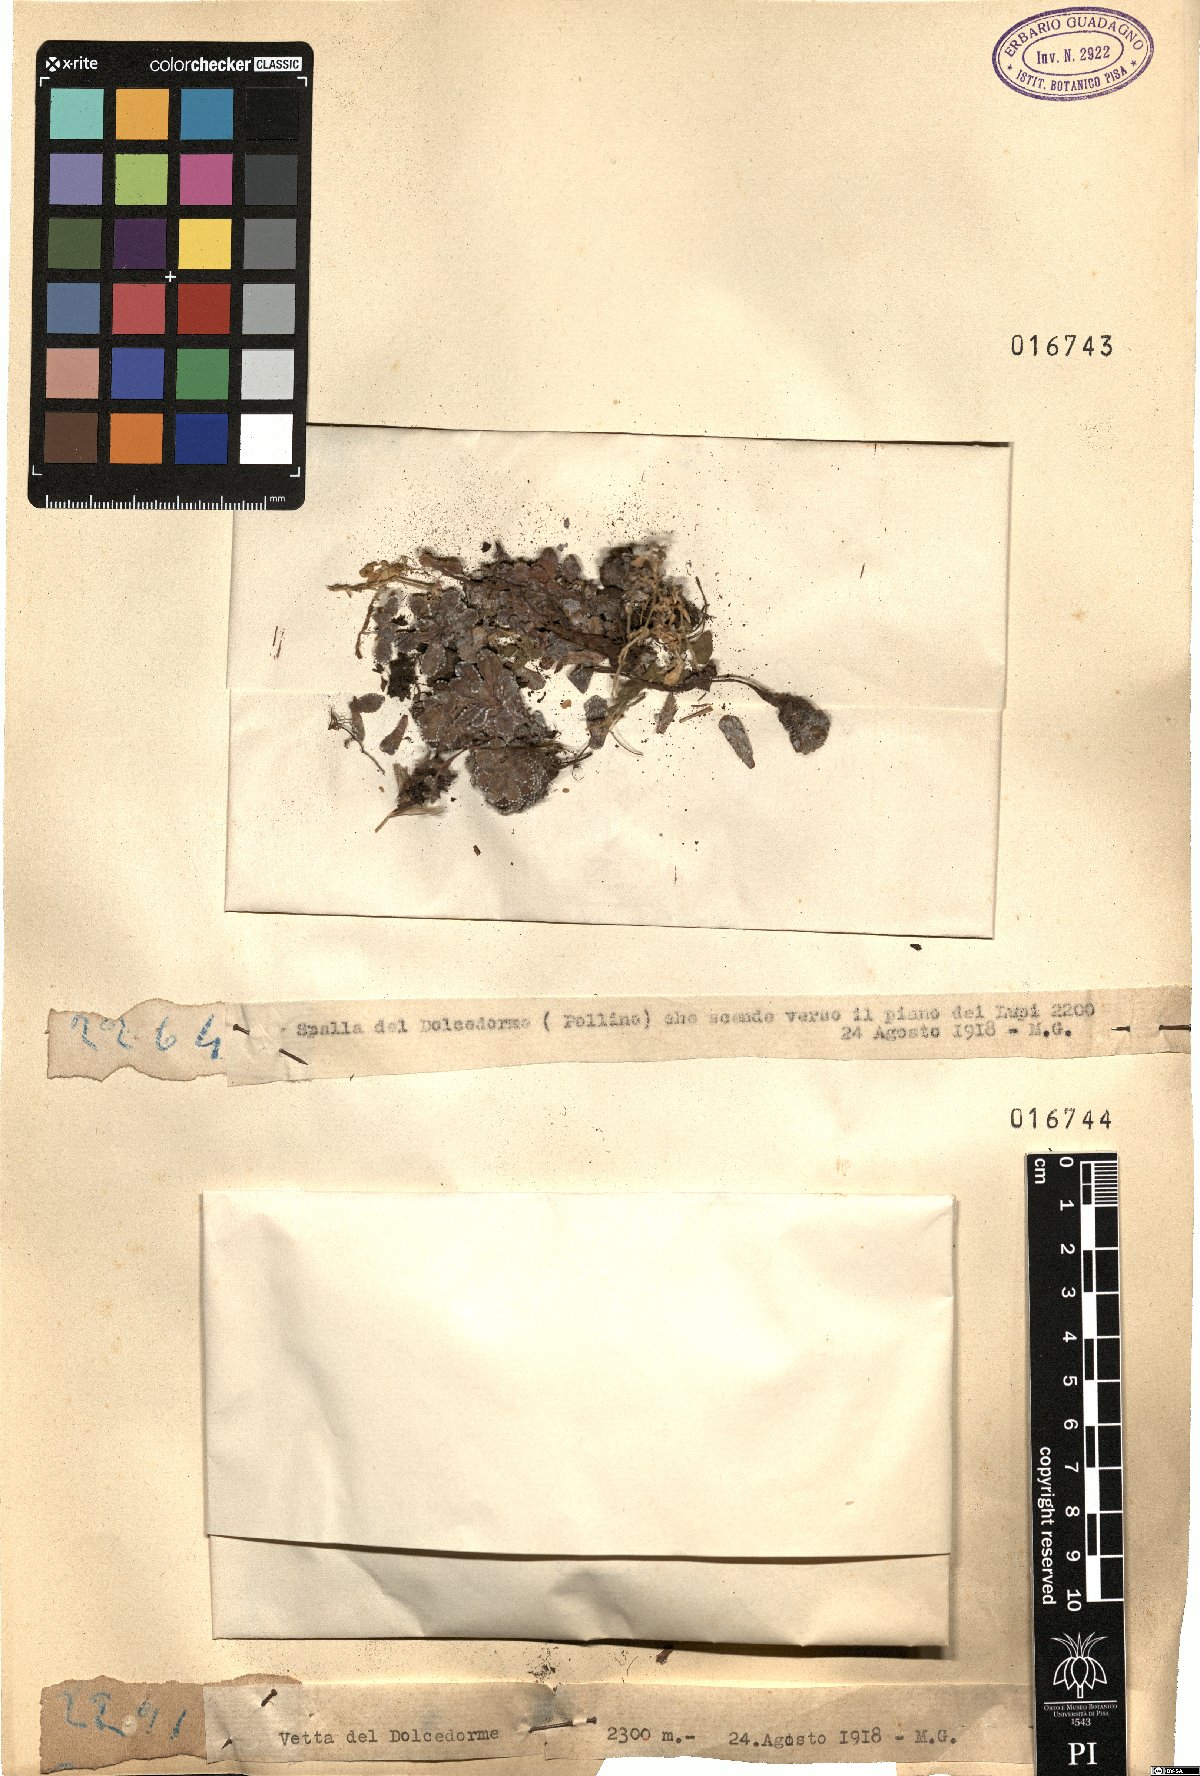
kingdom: Plantae
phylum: Tracheophyta
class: Magnoliopsida
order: Saxifragales
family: Saxifragaceae
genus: Saxifraga
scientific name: Saxifraga
